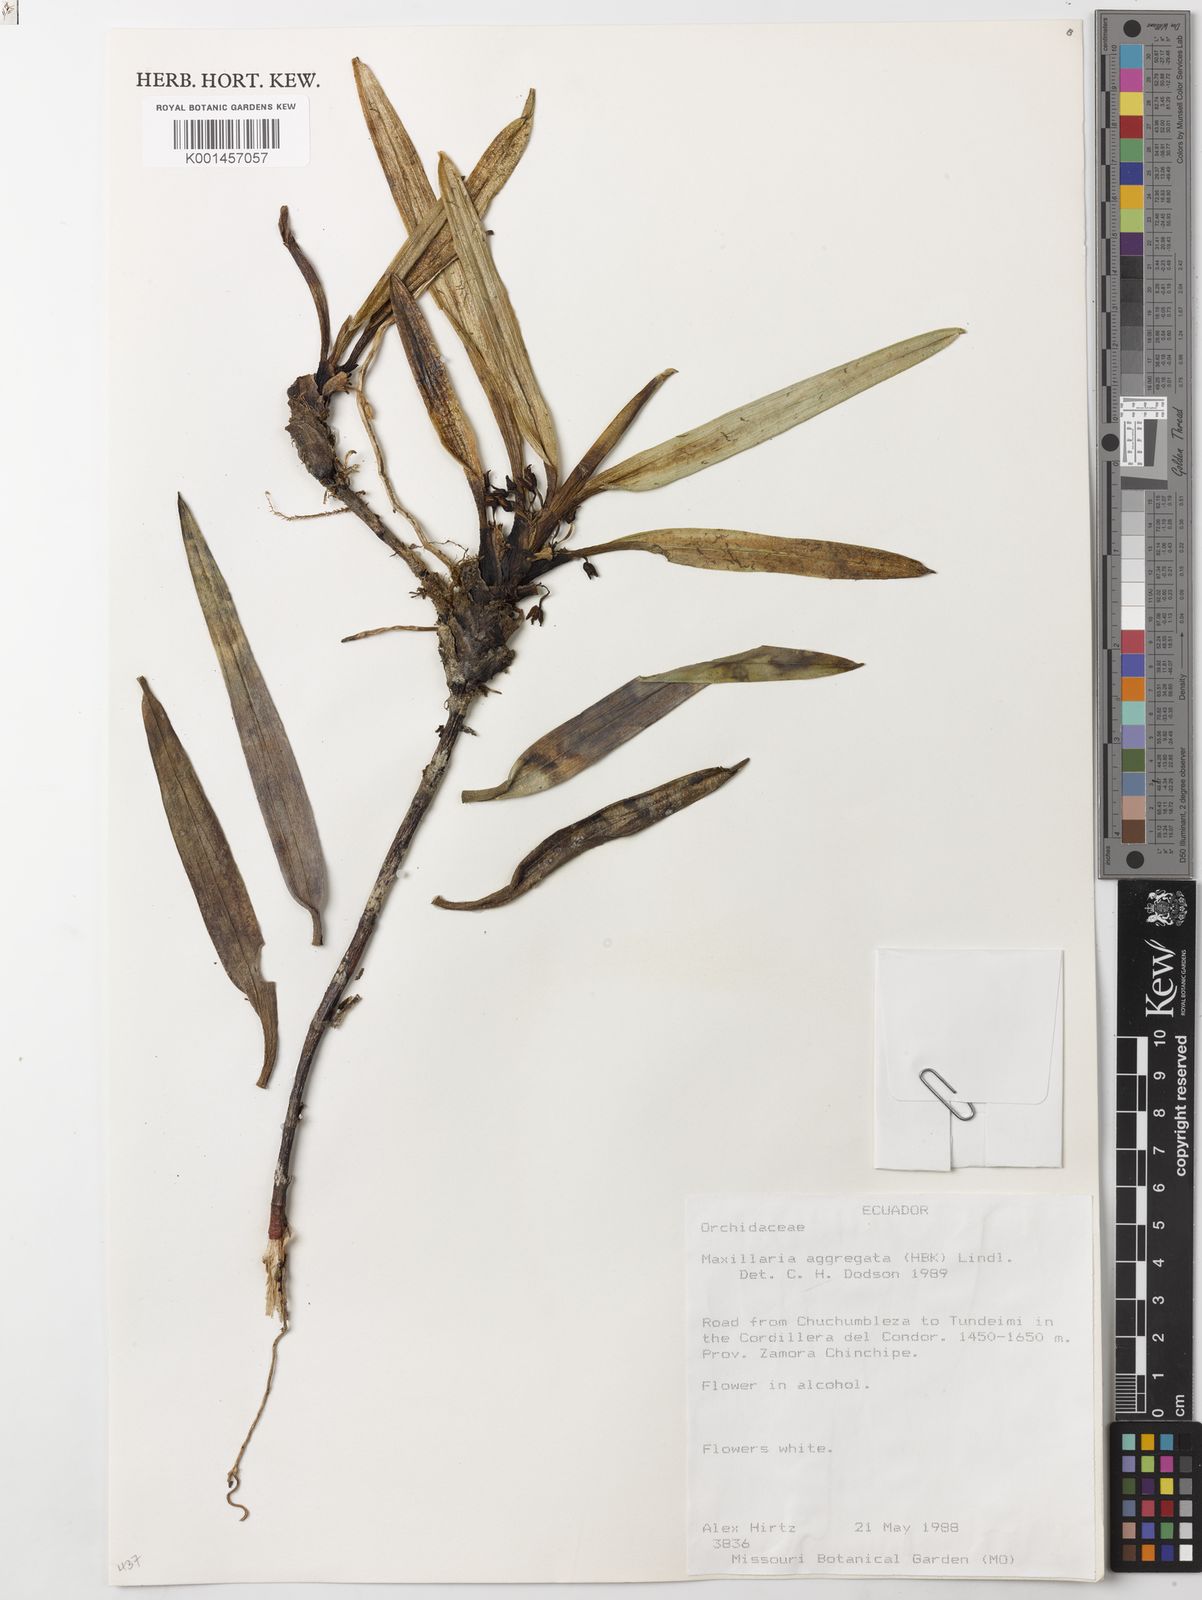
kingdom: Plantae
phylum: Tracheophyta
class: Liliopsida
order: Asparagales
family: Orchidaceae
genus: Maxillaria
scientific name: Maxillaria aggregata
